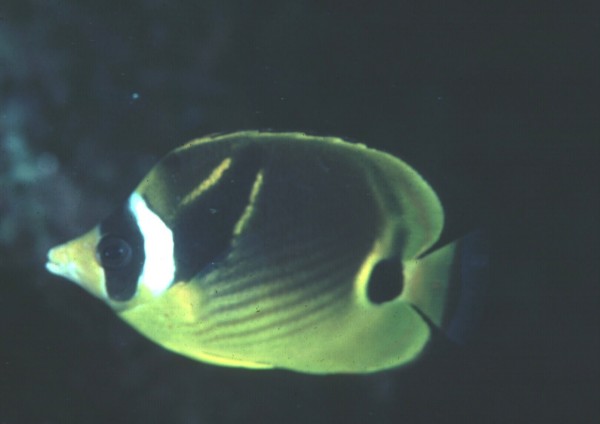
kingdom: Animalia
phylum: Chordata
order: Perciformes
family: Chaetodontidae
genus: Chaetodon
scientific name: Chaetodon lunula
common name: Raccoon butterflyfish
